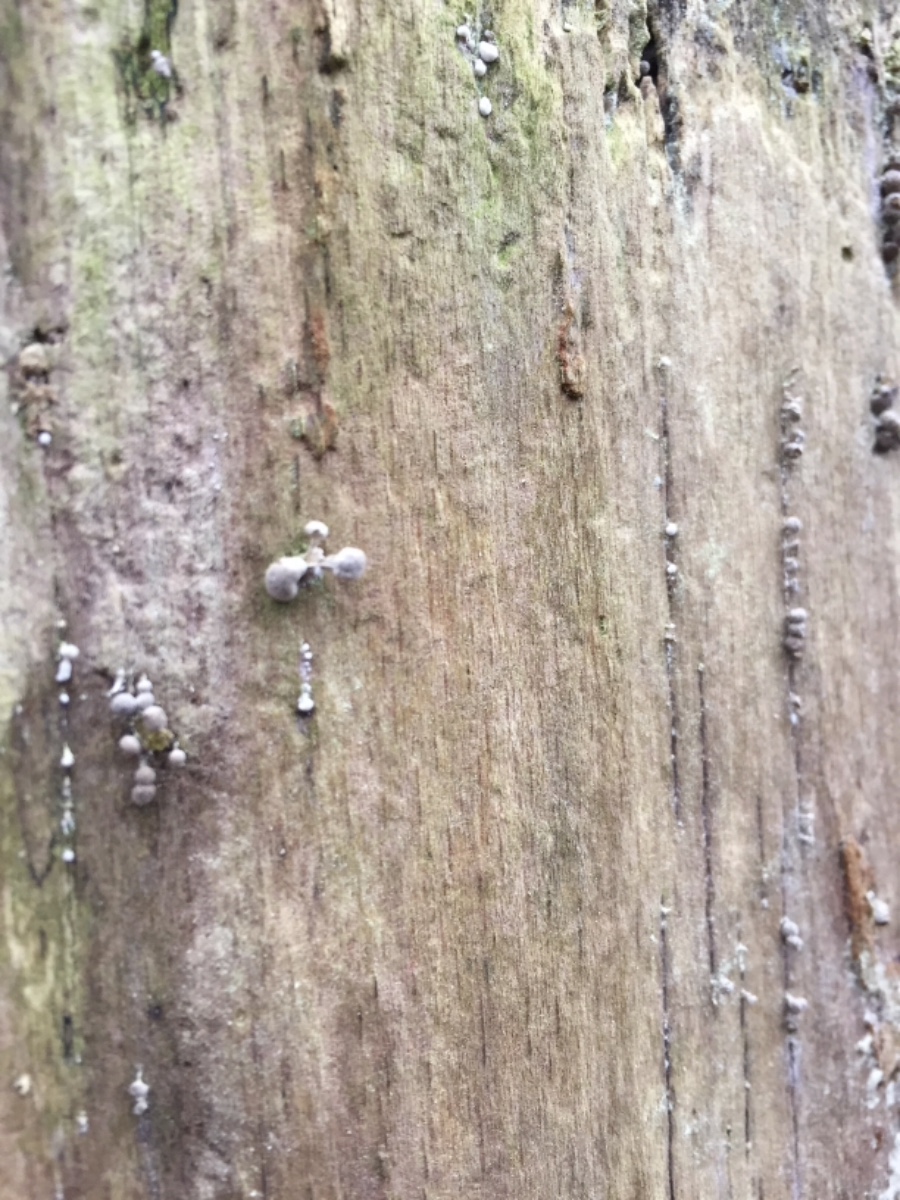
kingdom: Fungi
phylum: Basidiomycota
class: Atractiellomycetes
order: Atractiellales
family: Phleogenaceae
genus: Phleogena
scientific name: Phleogena faginea
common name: pudderkølle
